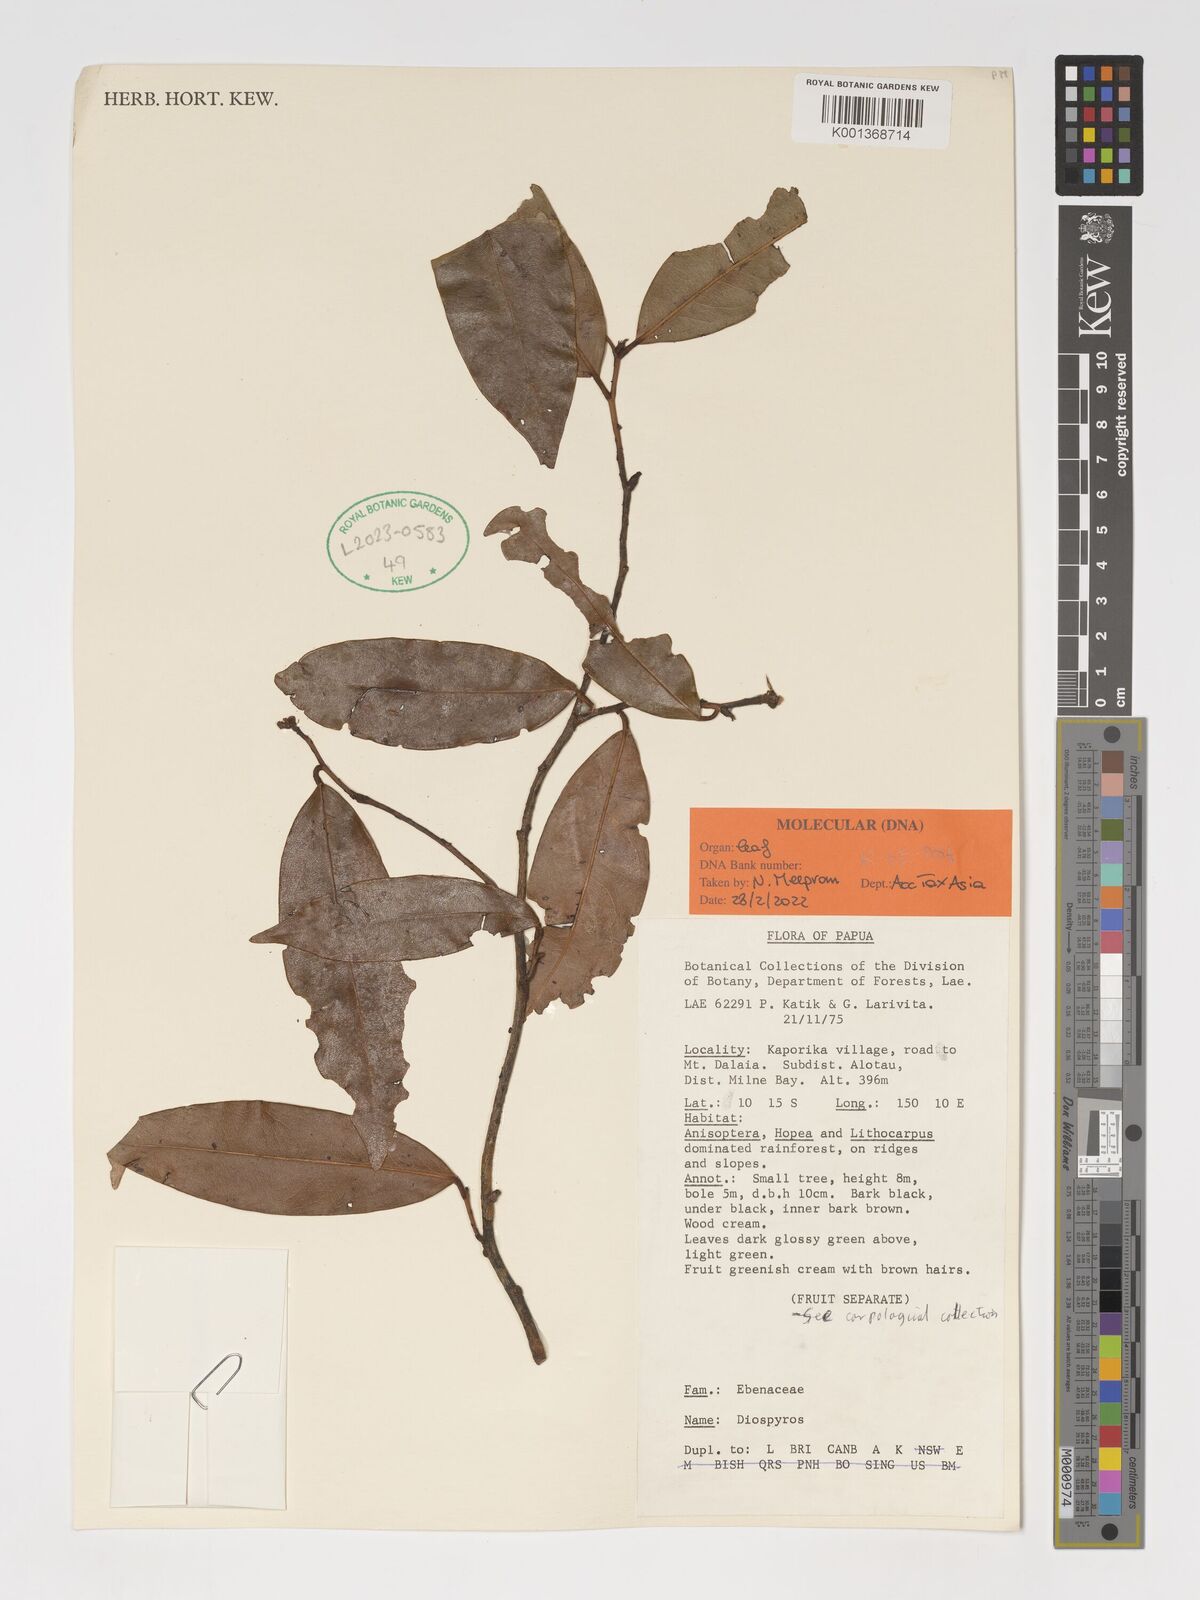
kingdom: Plantae
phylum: Tracheophyta
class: Magnoliopsida
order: Ericales
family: Ebenaceae
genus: Diospyros
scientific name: Diospyros
